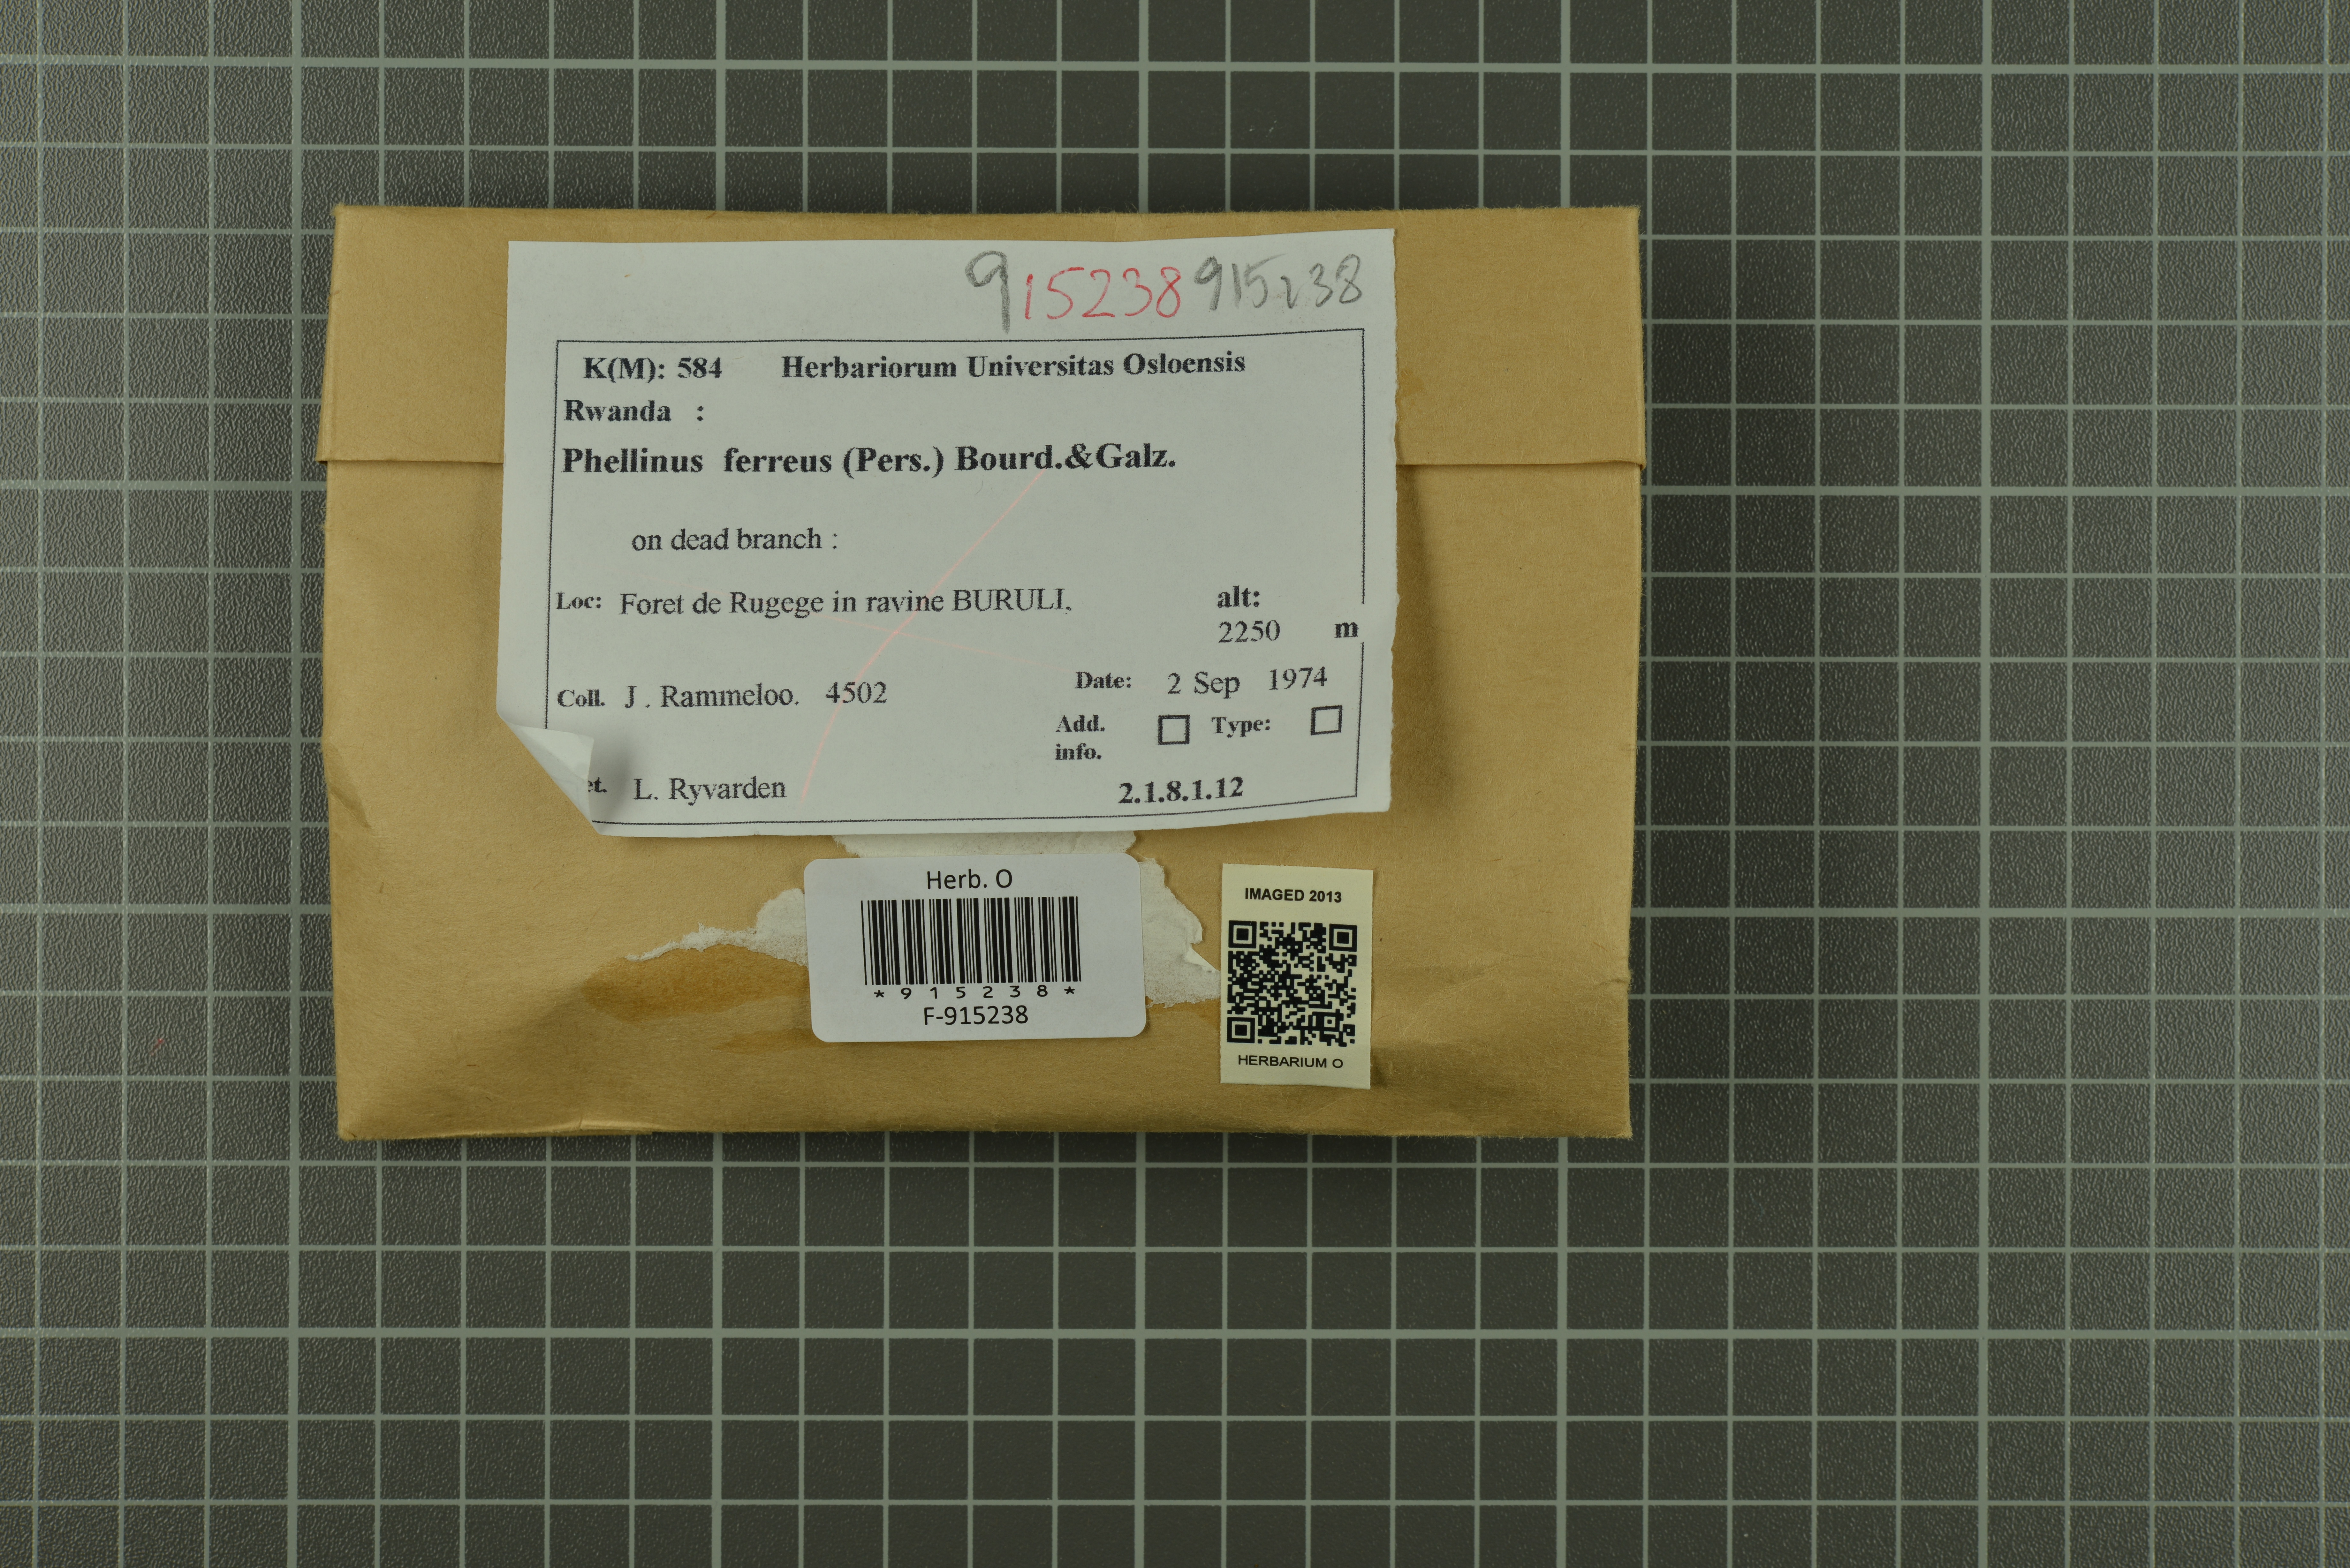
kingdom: Fungi
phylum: Basidiomycota
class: Agaricomycetes
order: Hymenochaetales
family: Hymenochaetaceae
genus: Fuscoporia
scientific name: Fuscoporia ferruginosa
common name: Rusty porecrust
